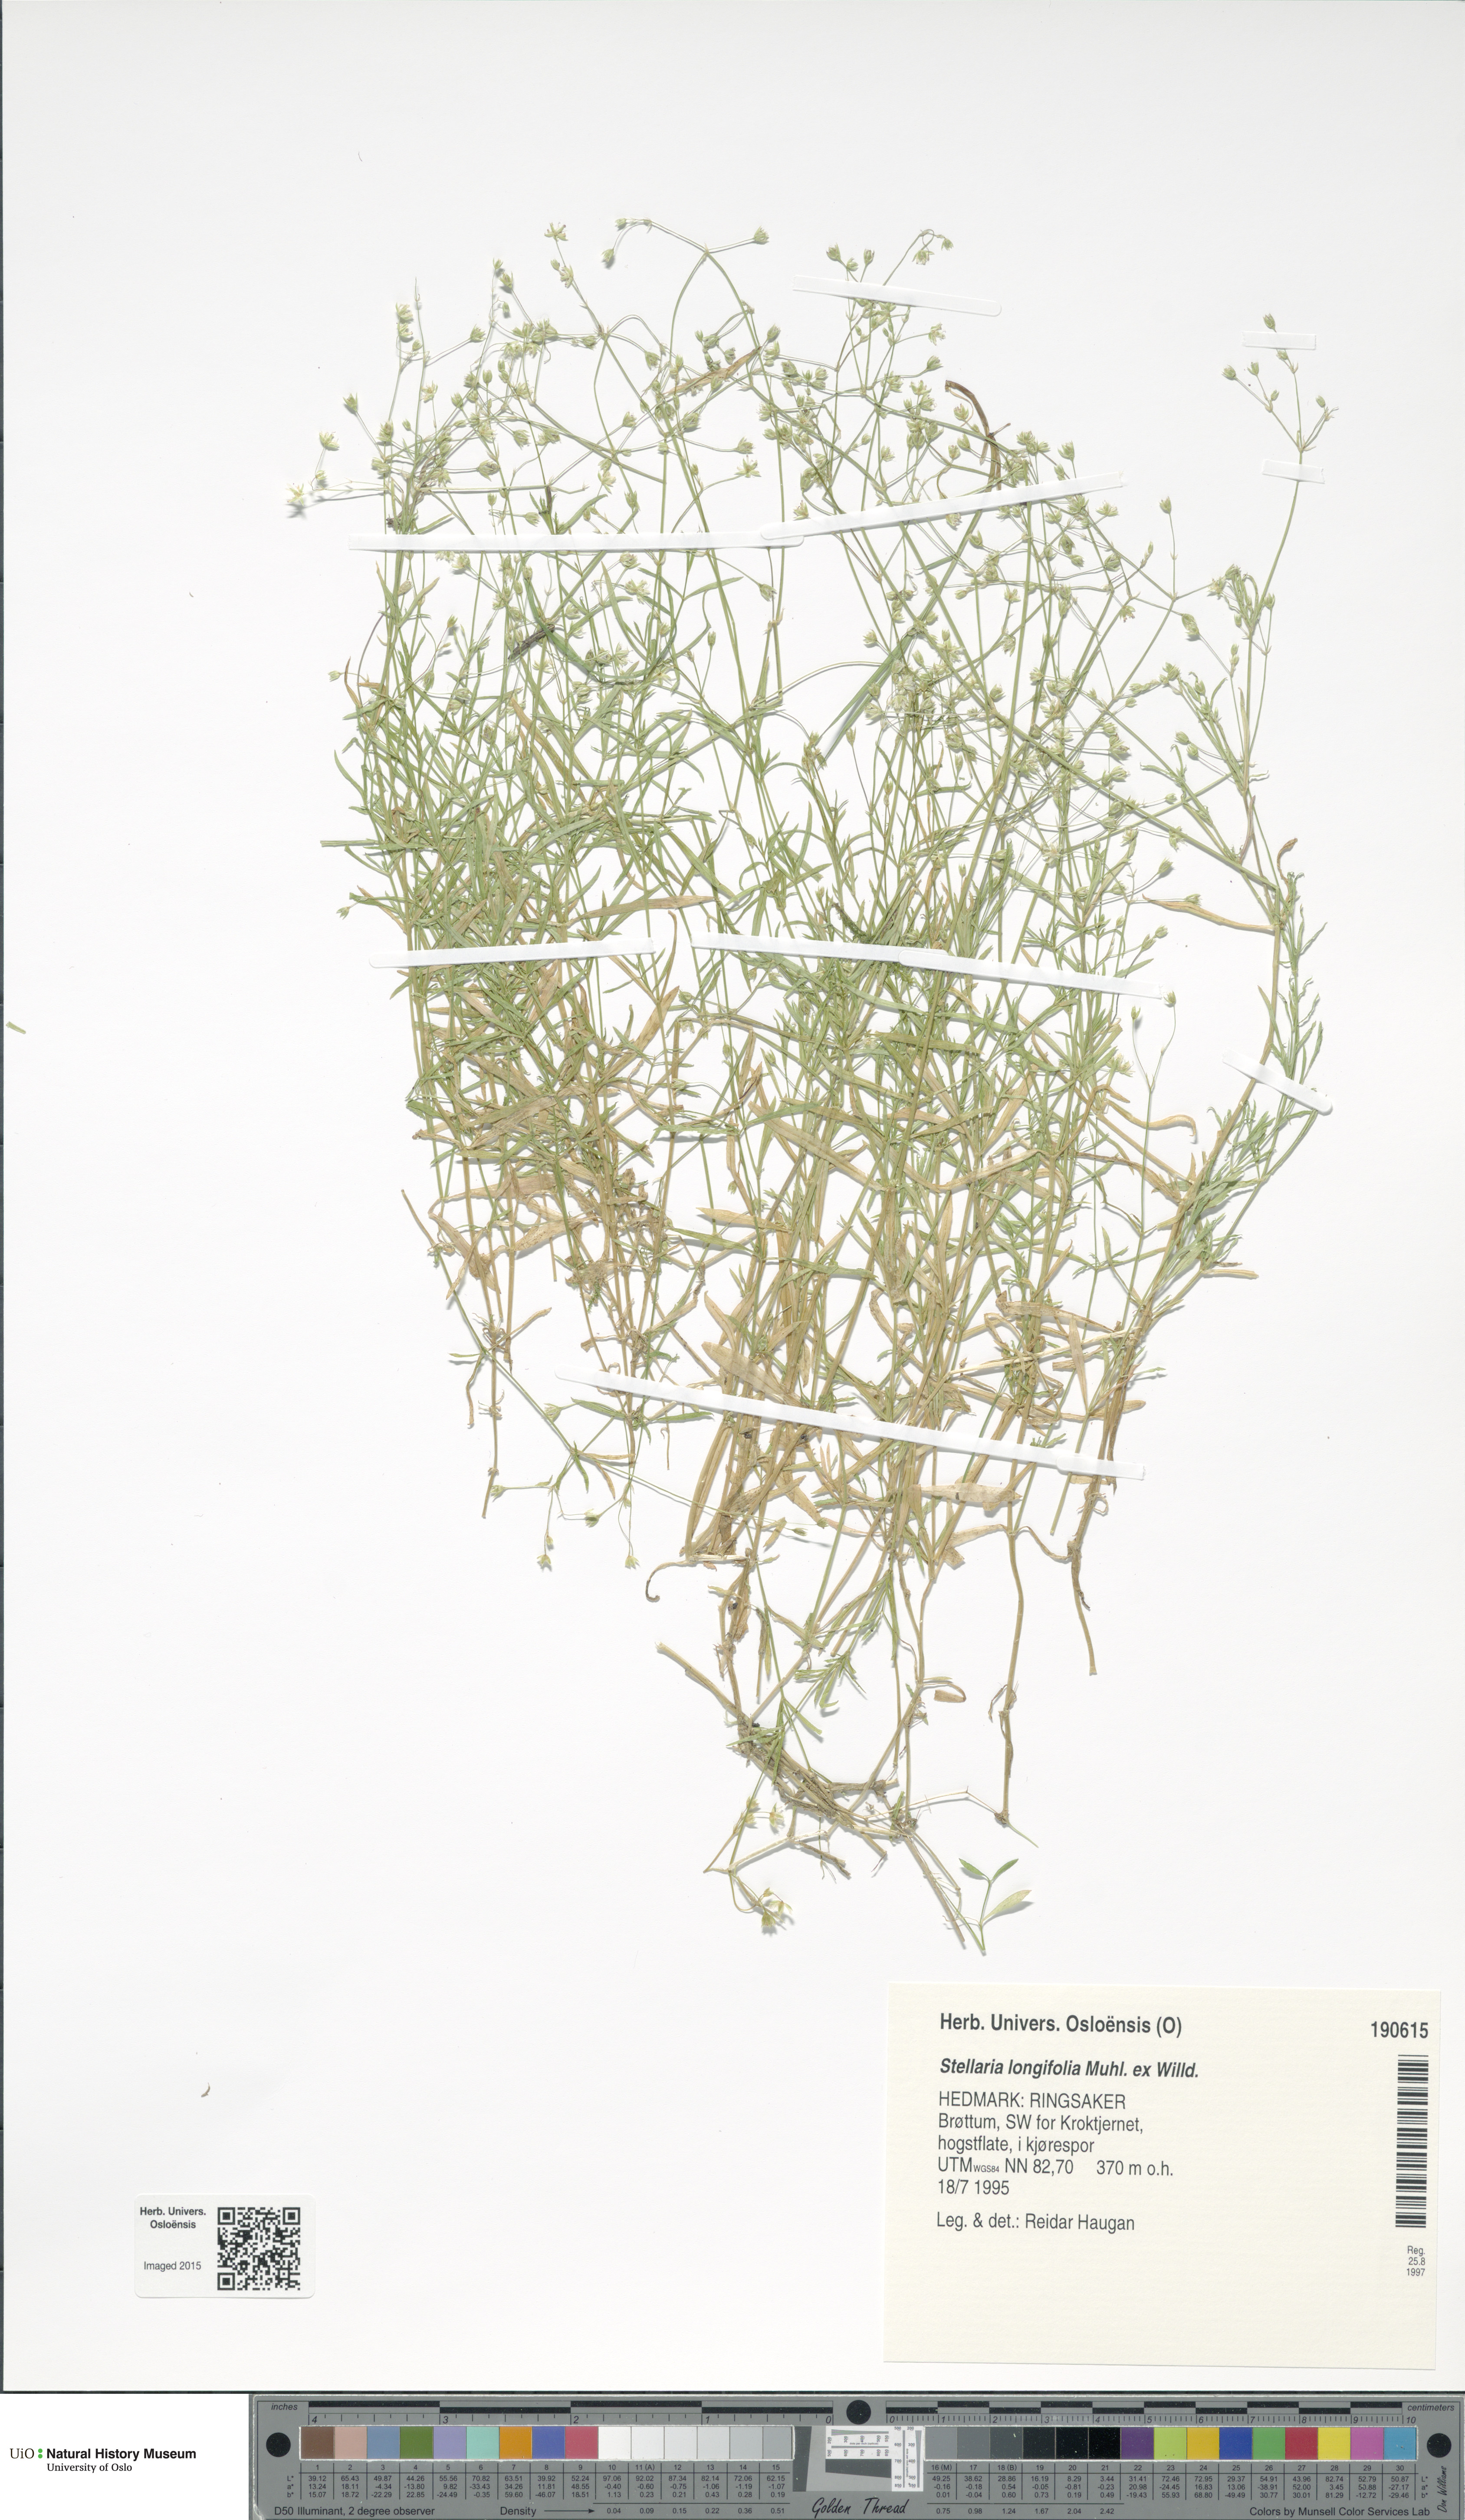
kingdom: Plantae
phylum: Tracheophyta
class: Magnoliopsida
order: Caryophyllales
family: Caryophyllaceae
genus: Stellaria
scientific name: Stellaria longifolia
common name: Long-leaved chickweed
